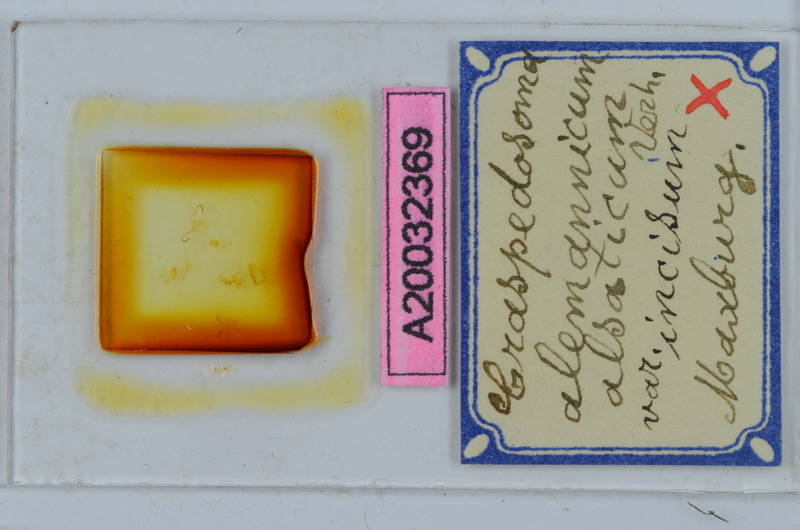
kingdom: Animalia
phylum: Arthropoda
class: Diplopoda
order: Chordeumatida
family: Craspedosomatidae
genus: Craspedosoma
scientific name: Craspedosoma rawlinsii
